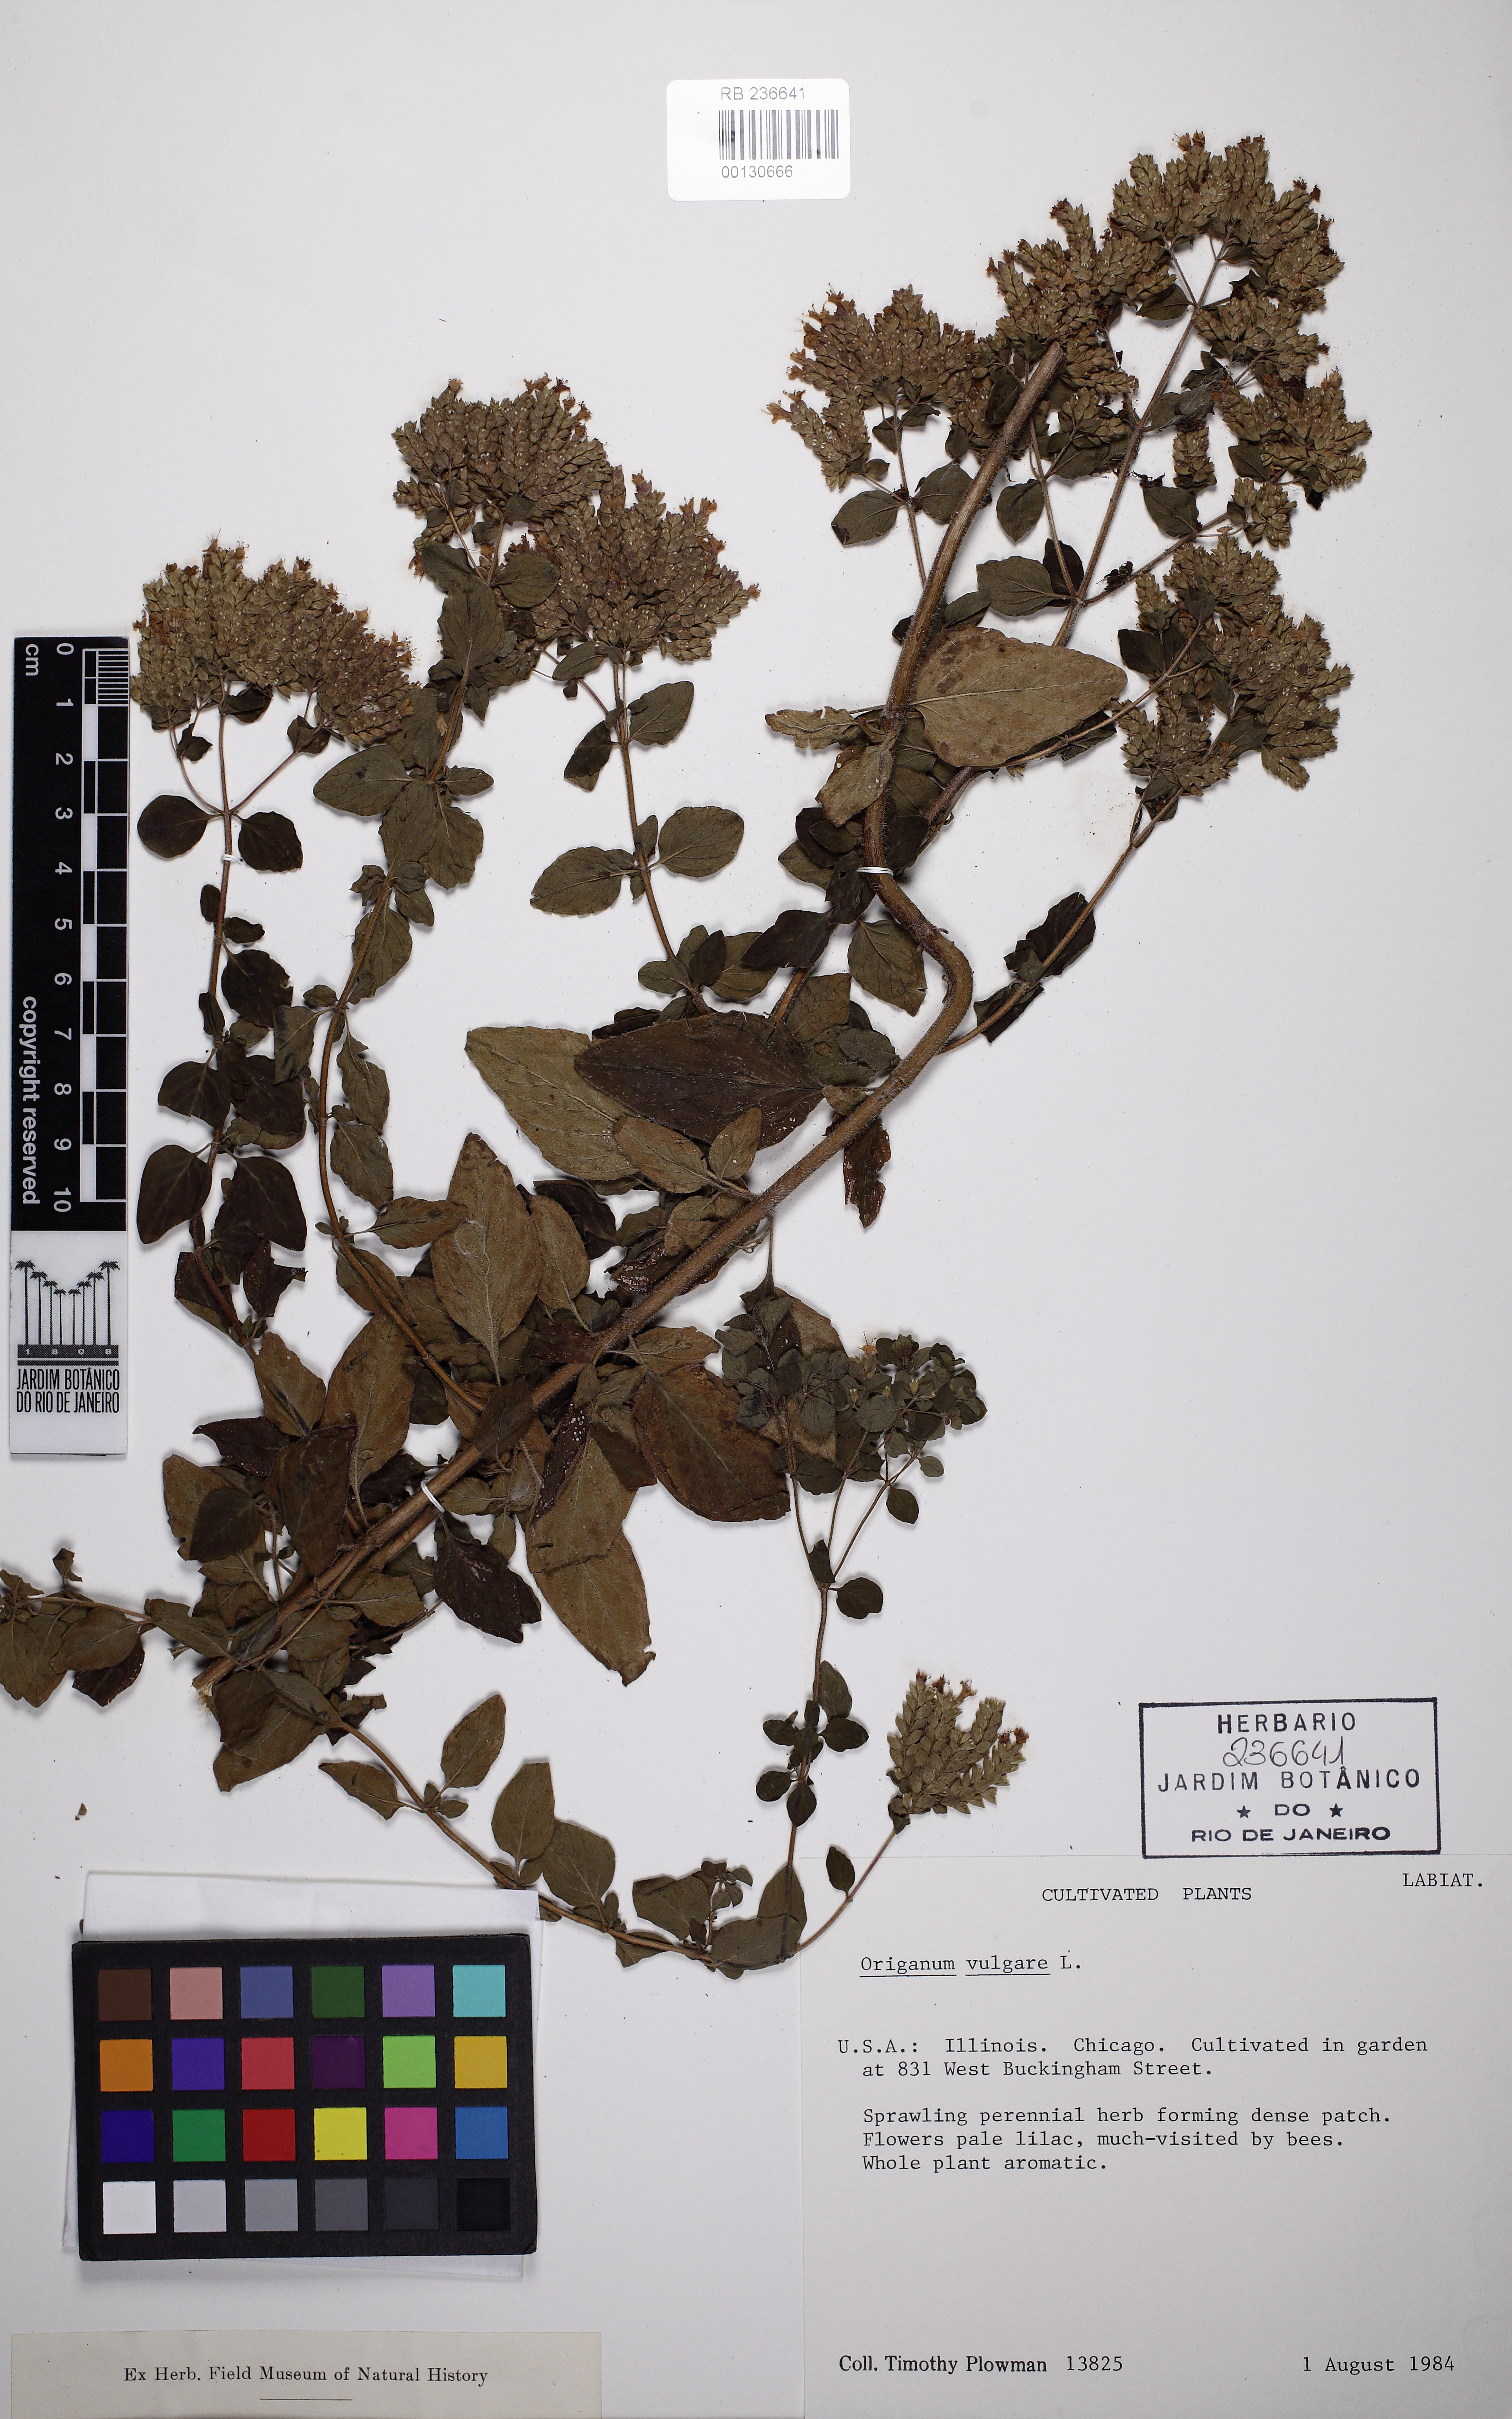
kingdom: Plantae
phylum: Tracheophyta
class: Magnoliopsida
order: Lamiales
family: Lamiaceae
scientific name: Lamiaceae
